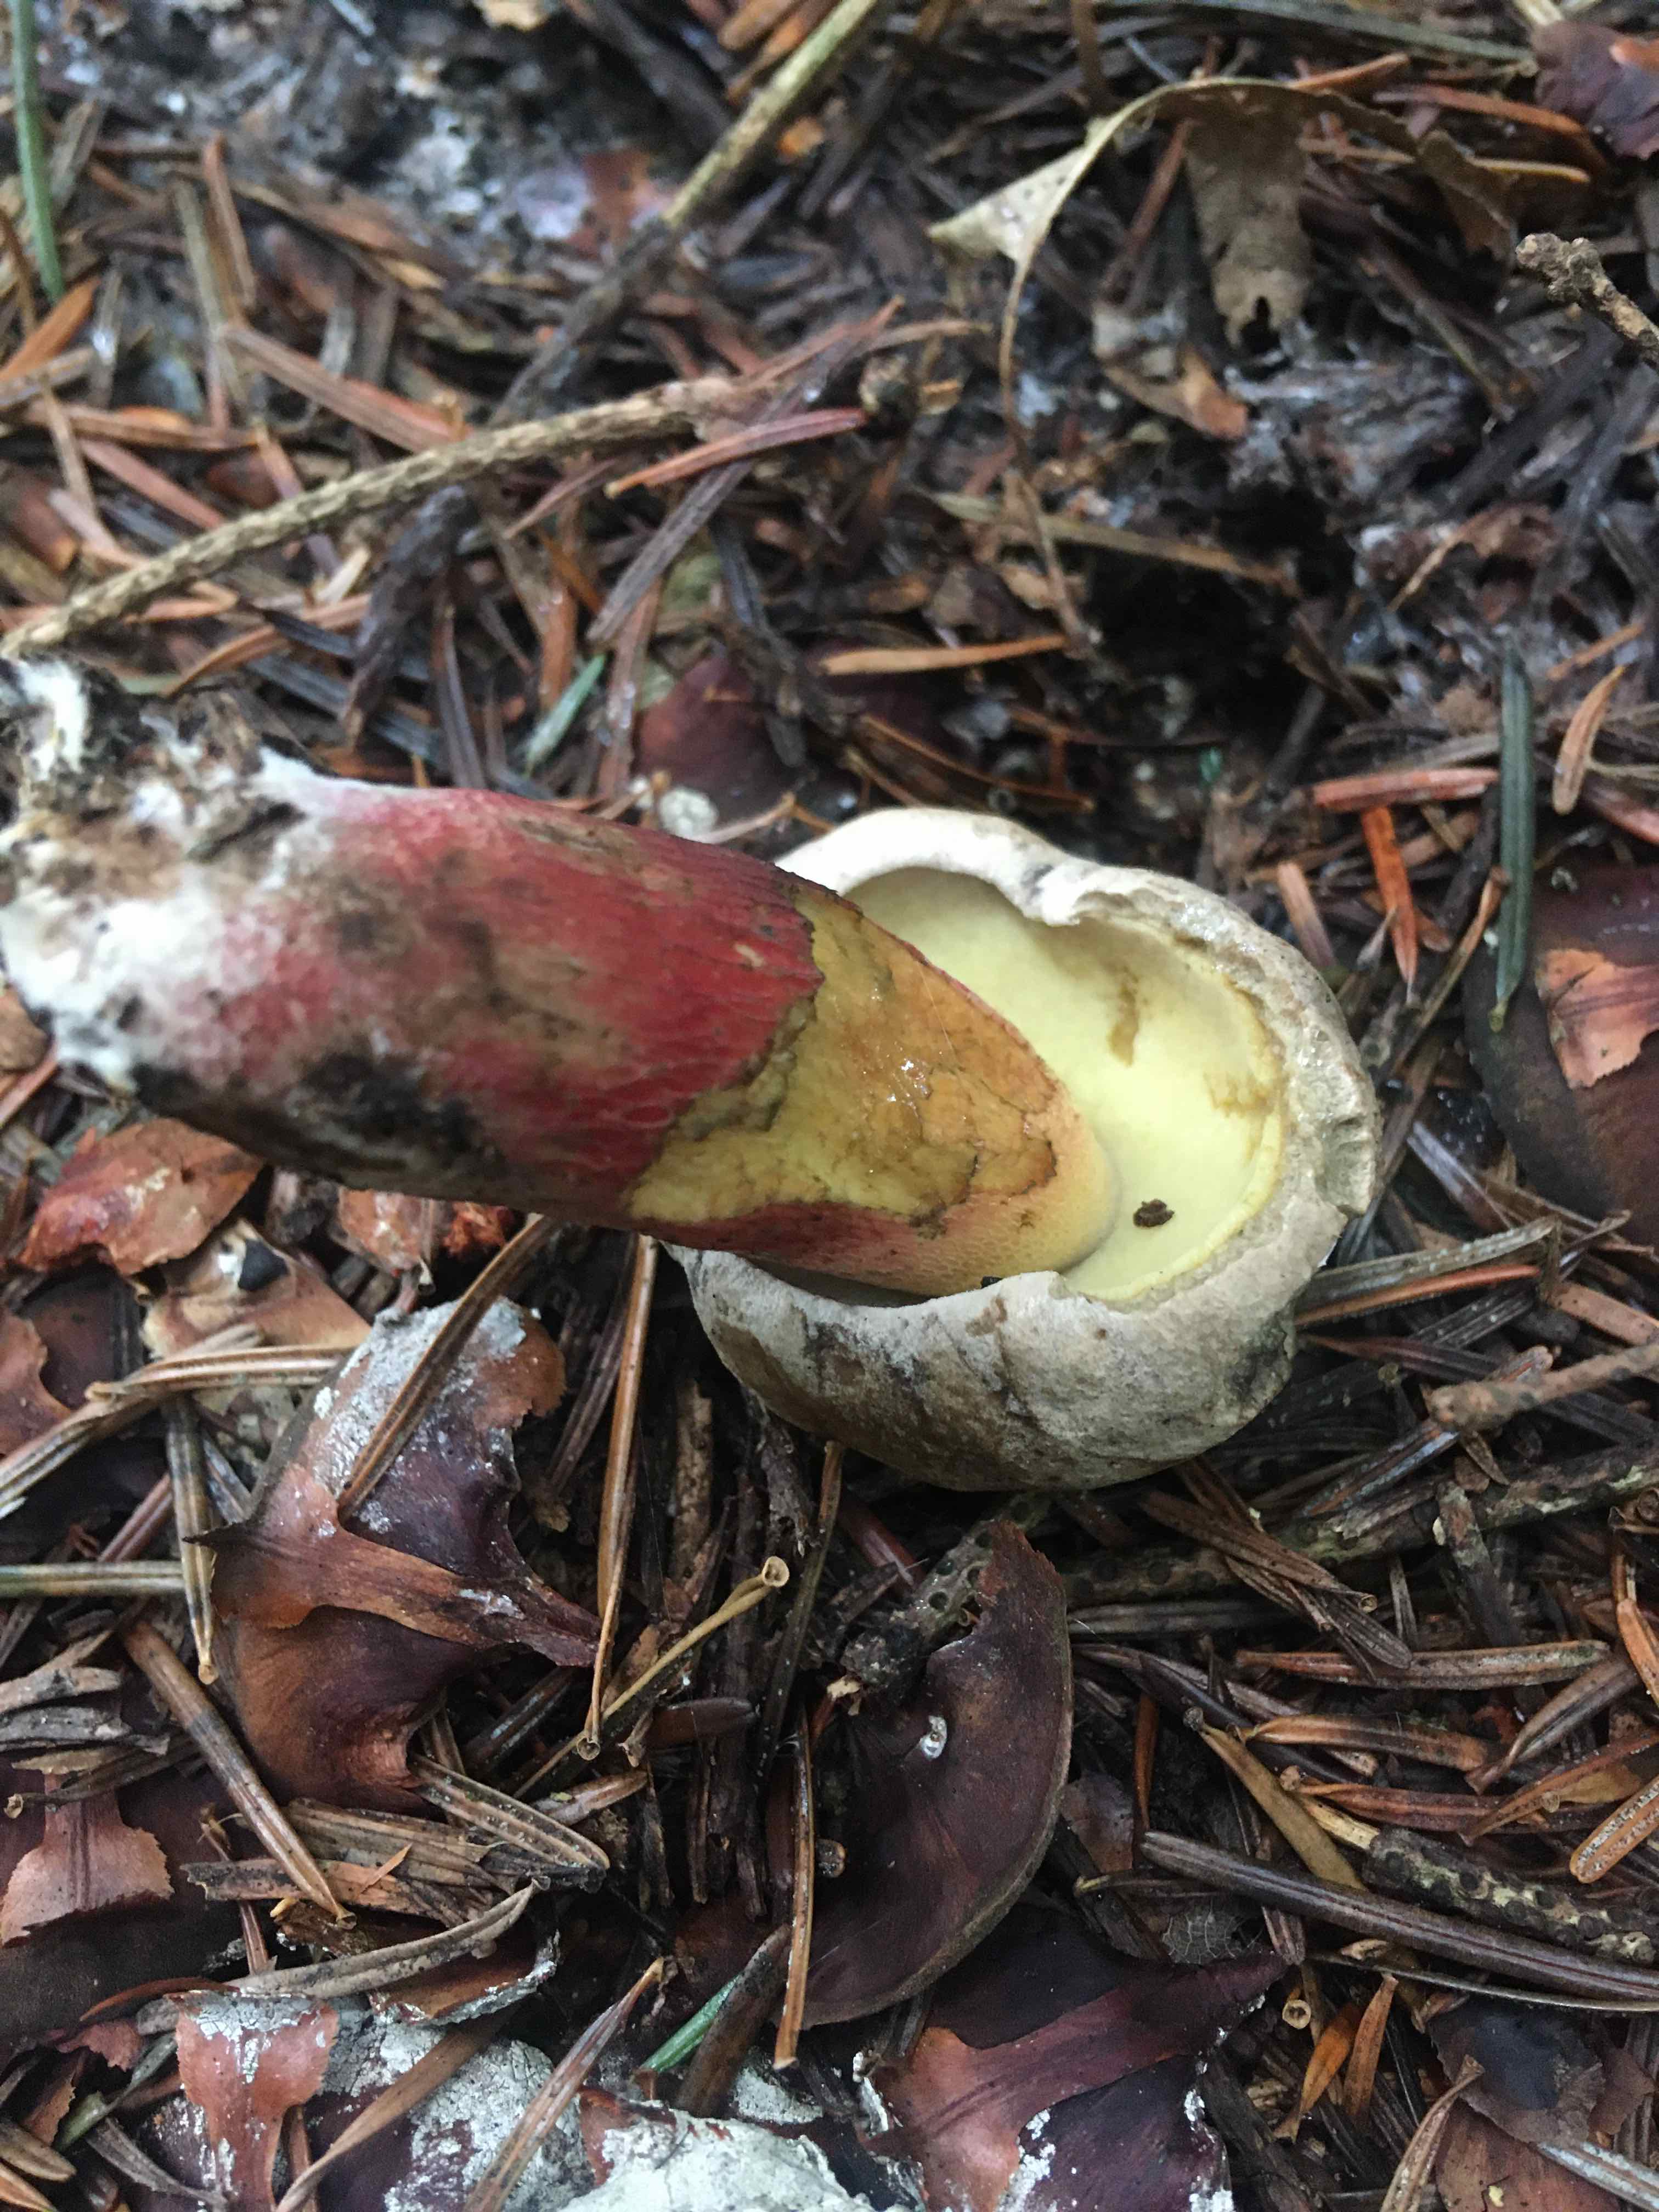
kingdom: Fungi
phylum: Basidiomycota
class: Agaricomycetes
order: Boletales
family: Boletaceae
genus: Caloboletus
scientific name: Caloboletus calopus
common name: skønfodet rørhat
